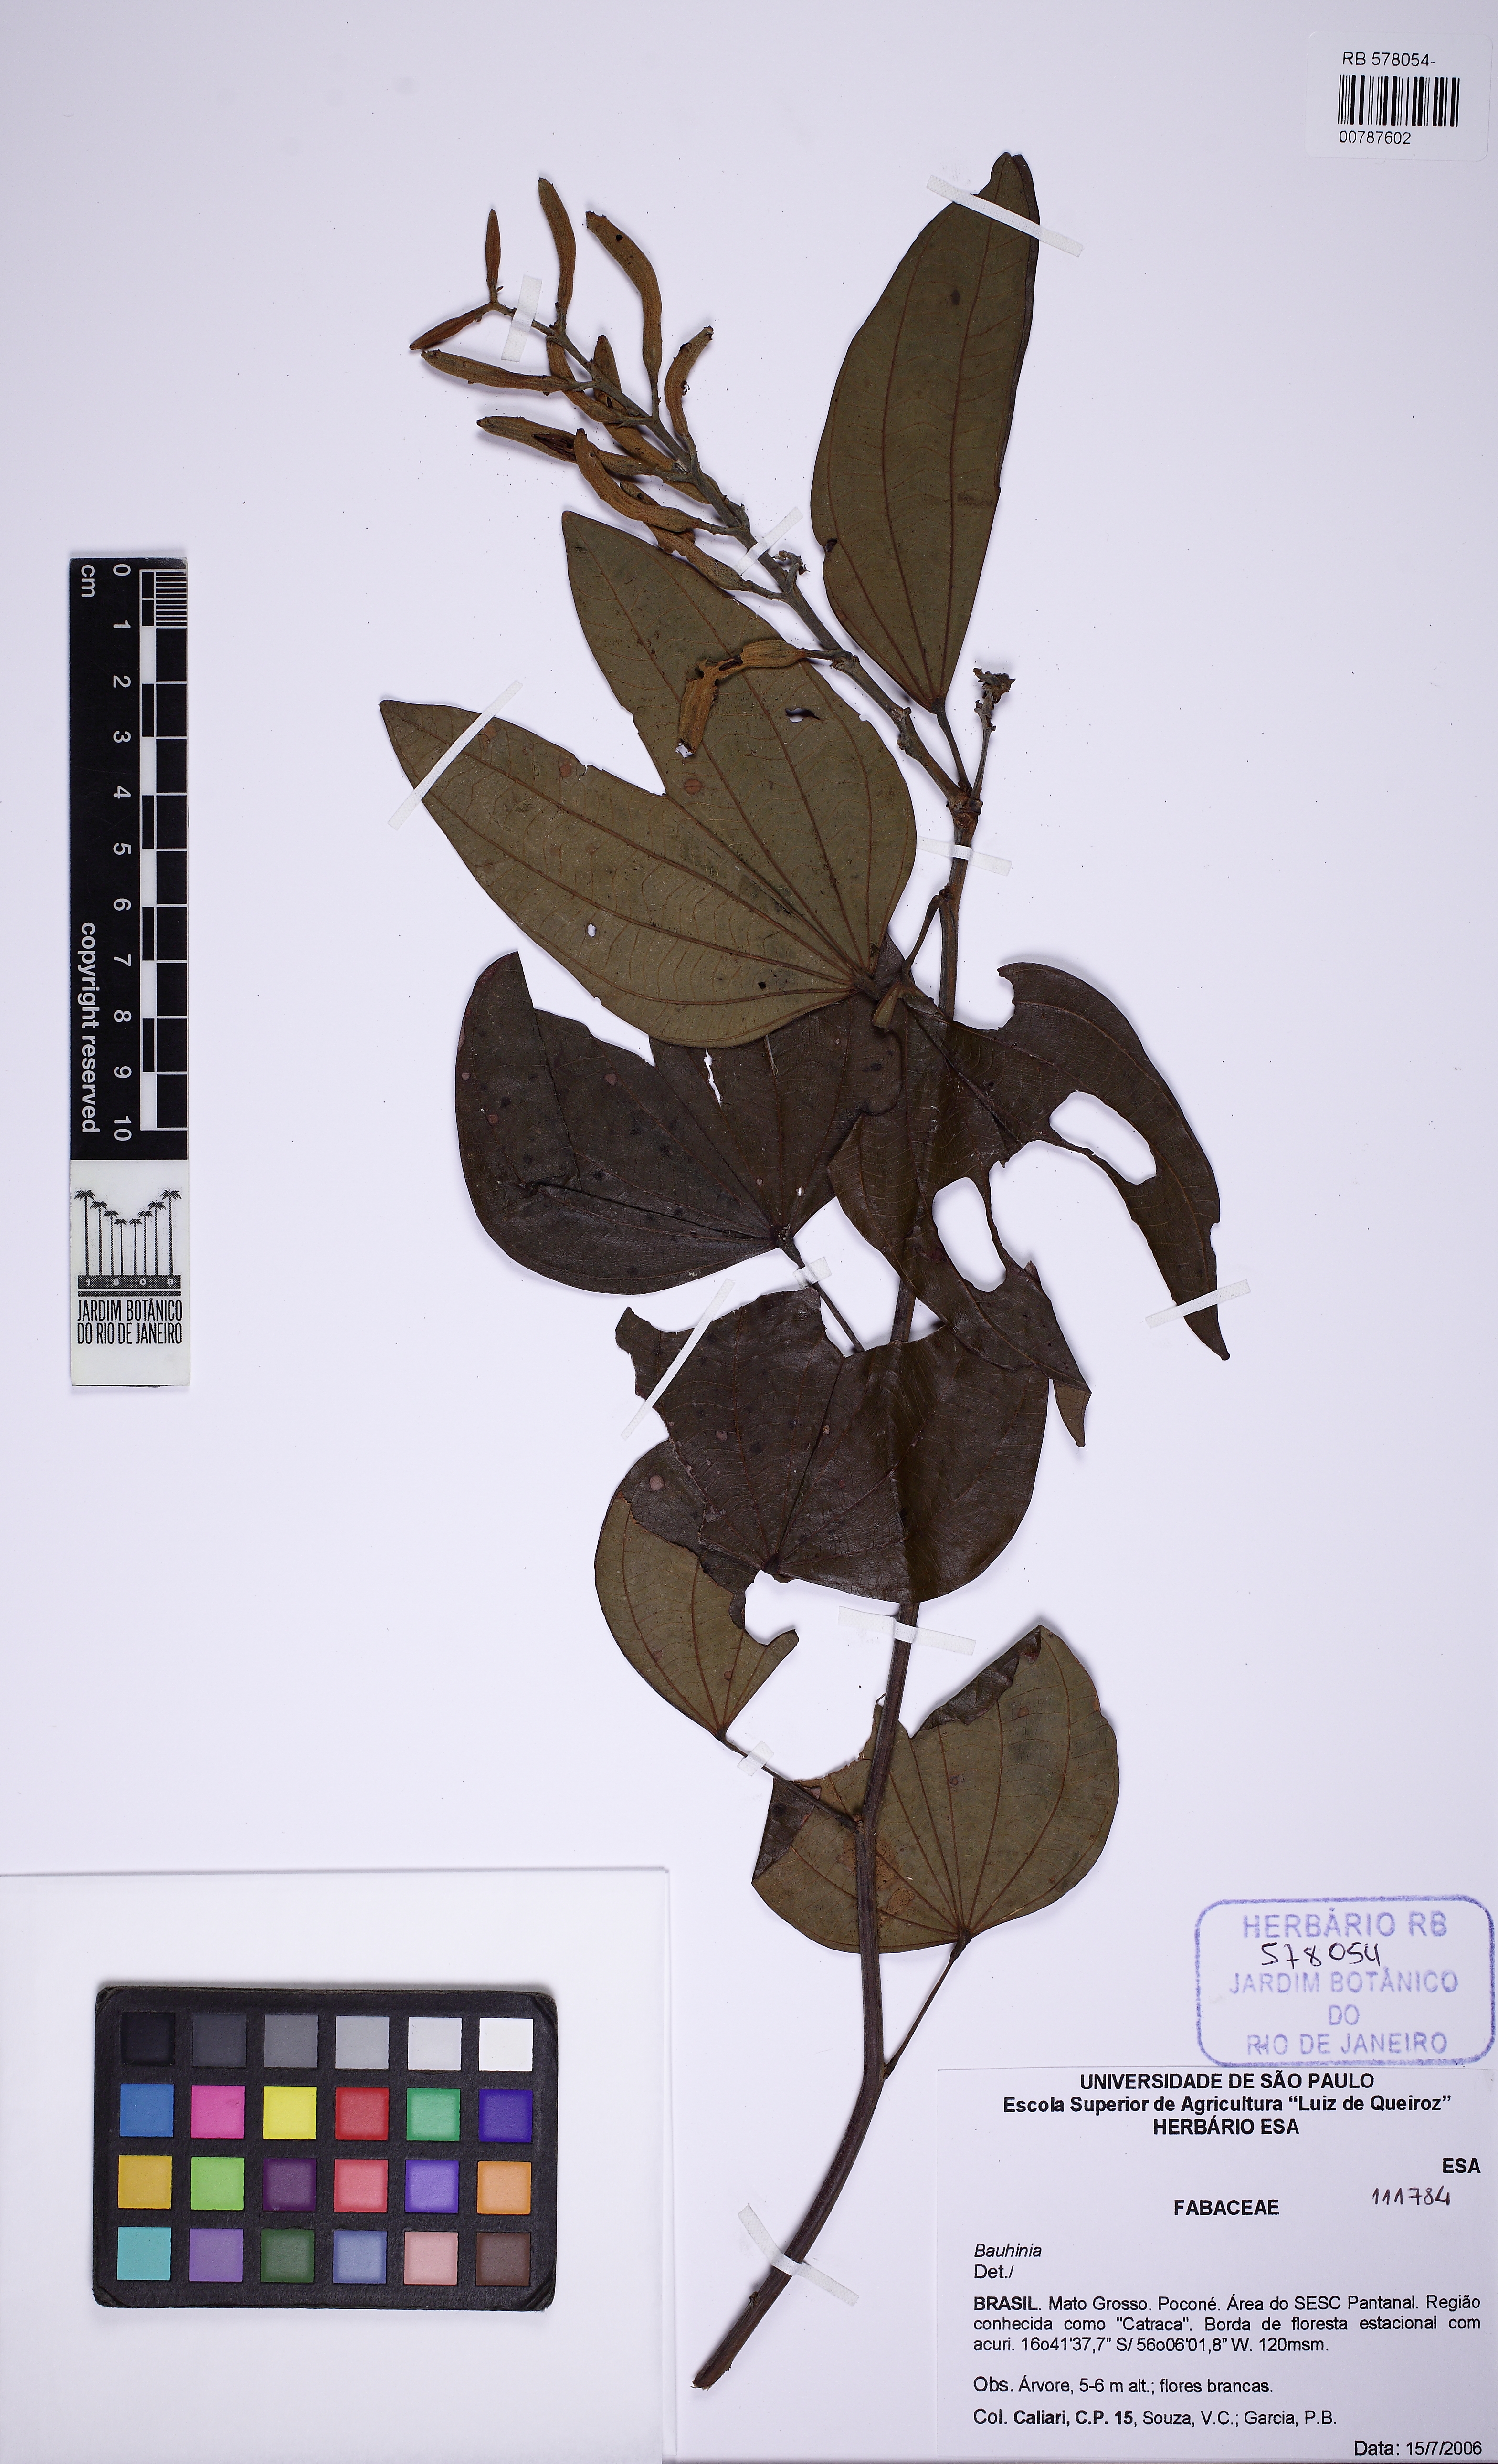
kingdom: Plantae
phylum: Tracheophyta
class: Magnoliopsida
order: Fabales
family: Fabaceae
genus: Bauhinia
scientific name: Bauhinia
